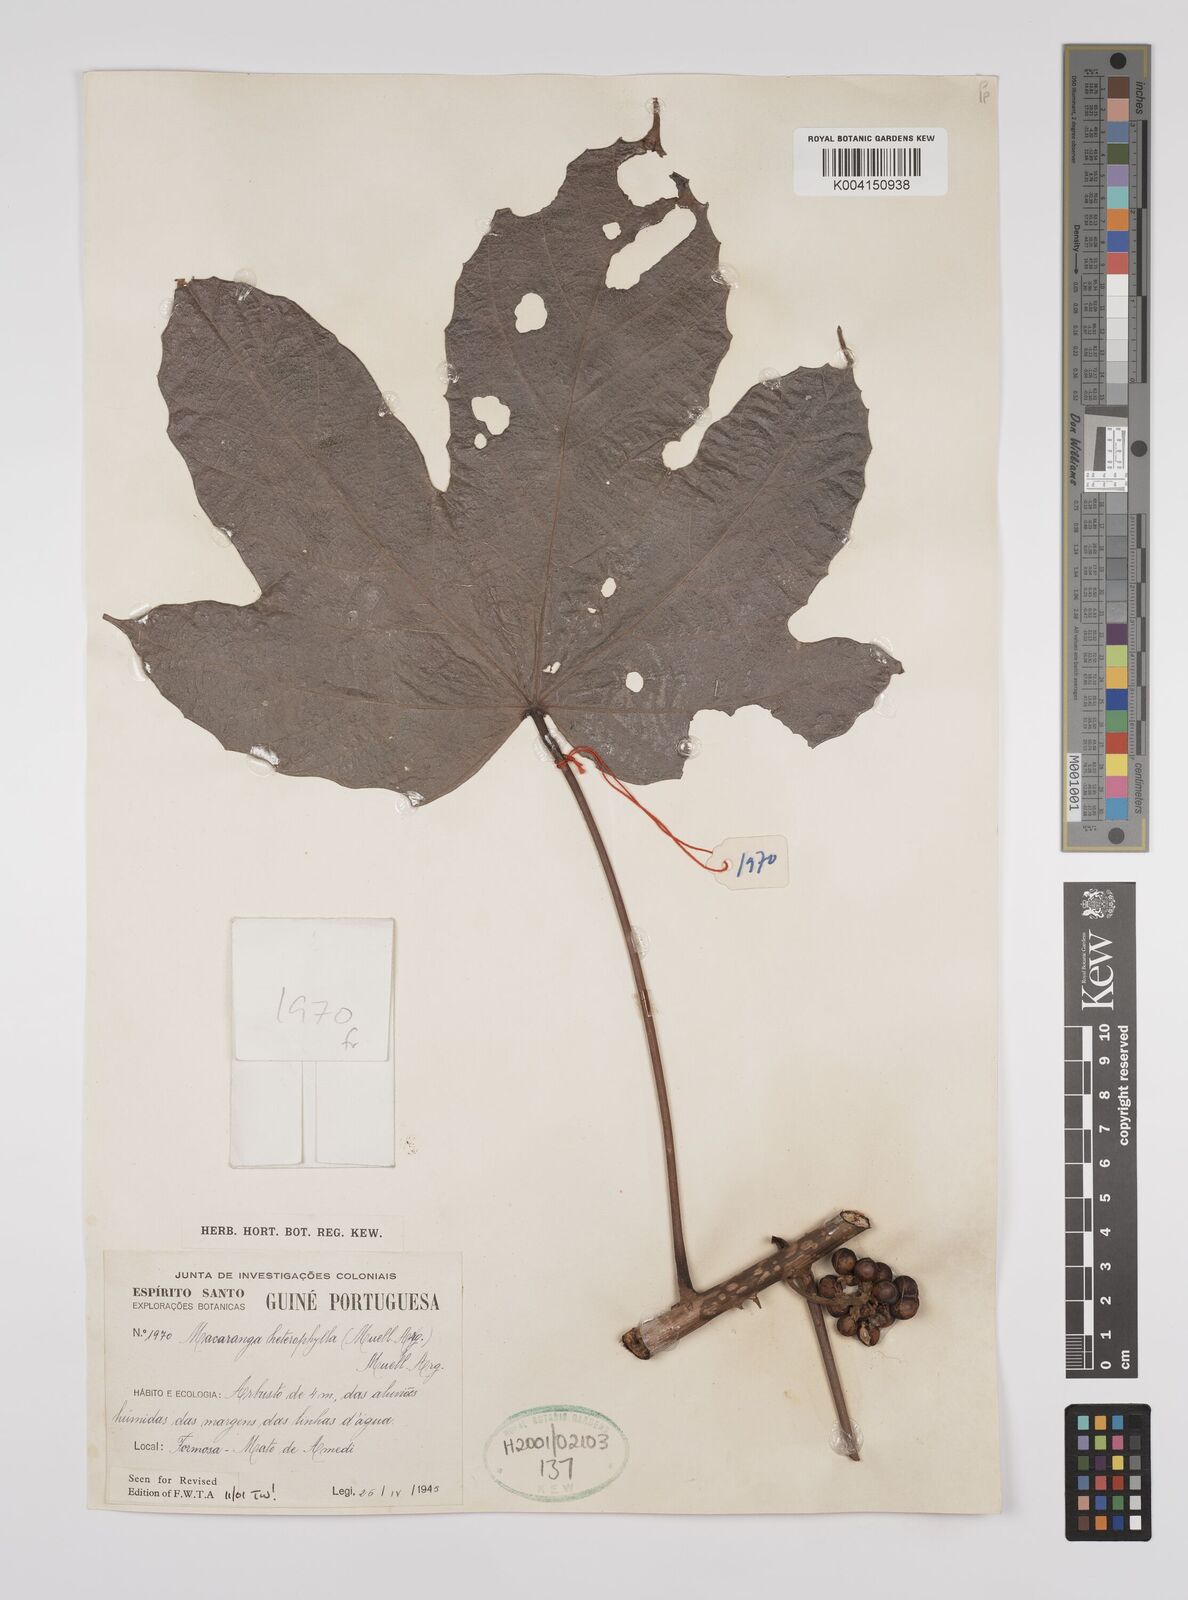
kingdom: Plantae
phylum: Tracheophyta
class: Magnoliopsida
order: Malpighiales
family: Euphorbiaceae
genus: Macaranga
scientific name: Macaranga heterophylla
